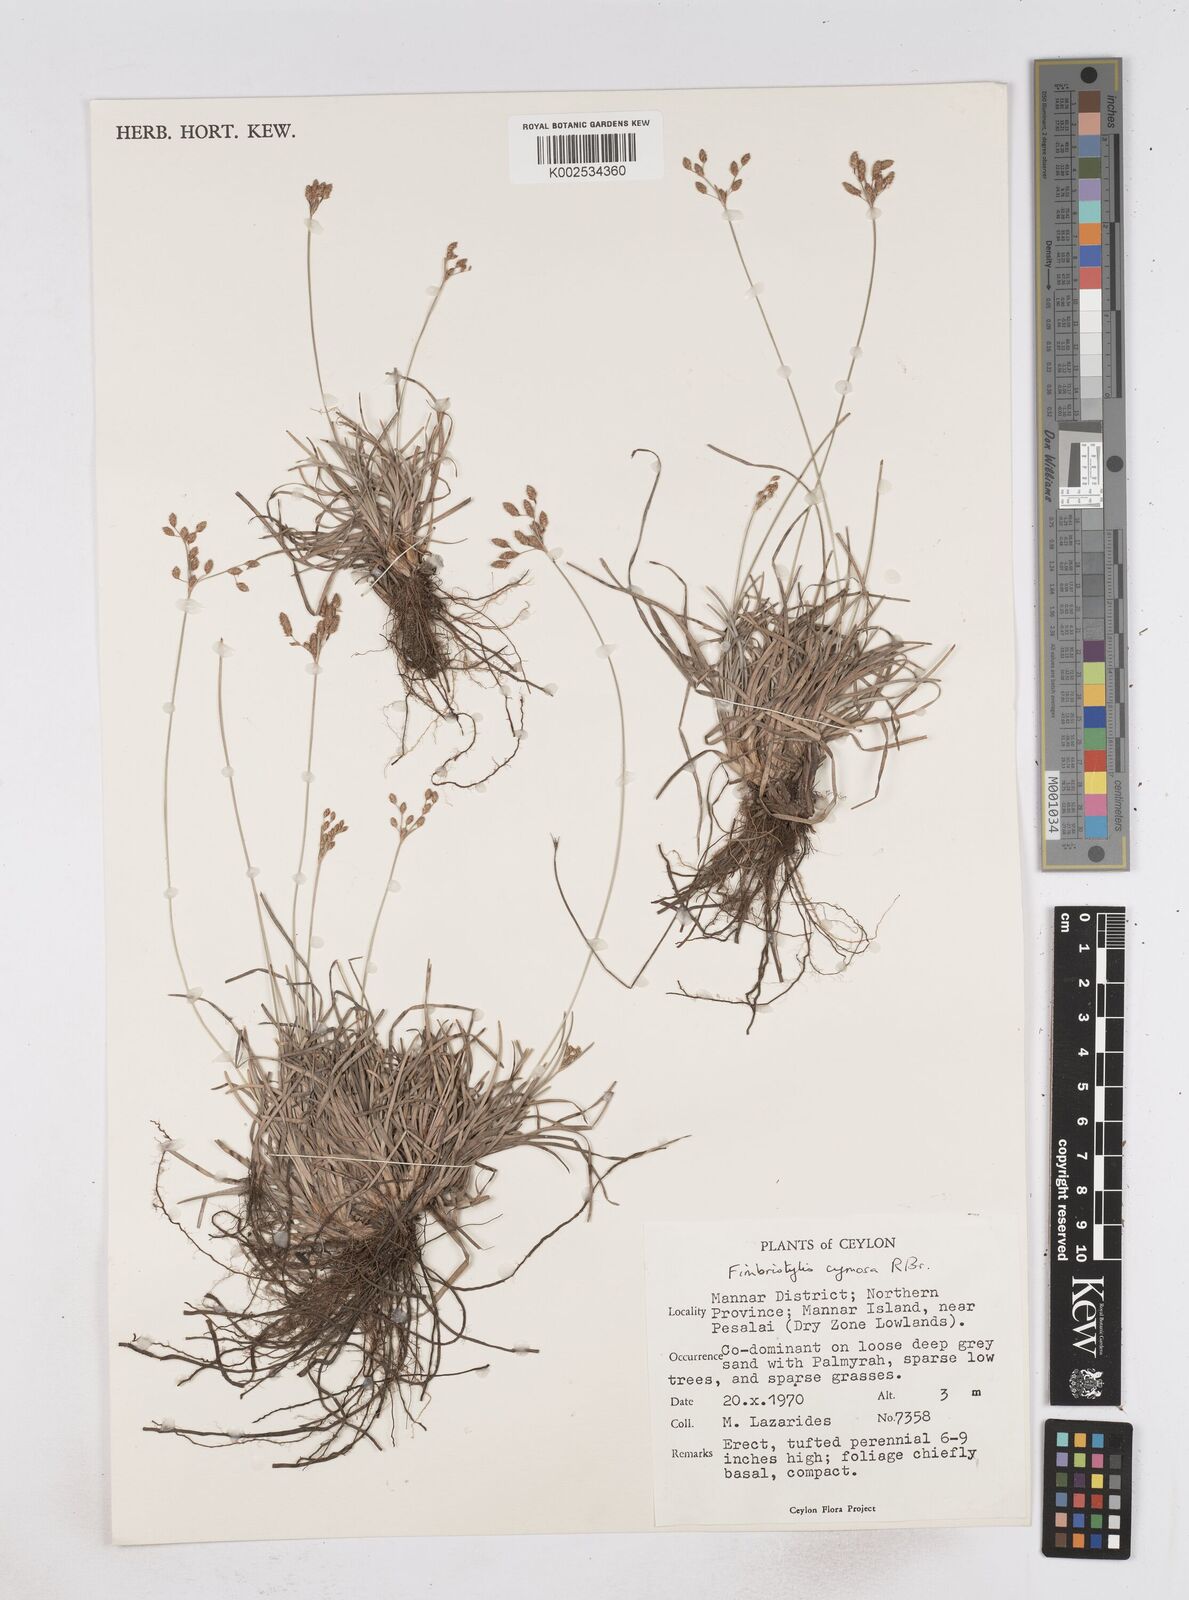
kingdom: Plantae
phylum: Tracheophyta
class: Liliopsida
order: Poales
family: Cyperaceae
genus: Fimbristylis
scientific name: Fimbristylis cymosa
